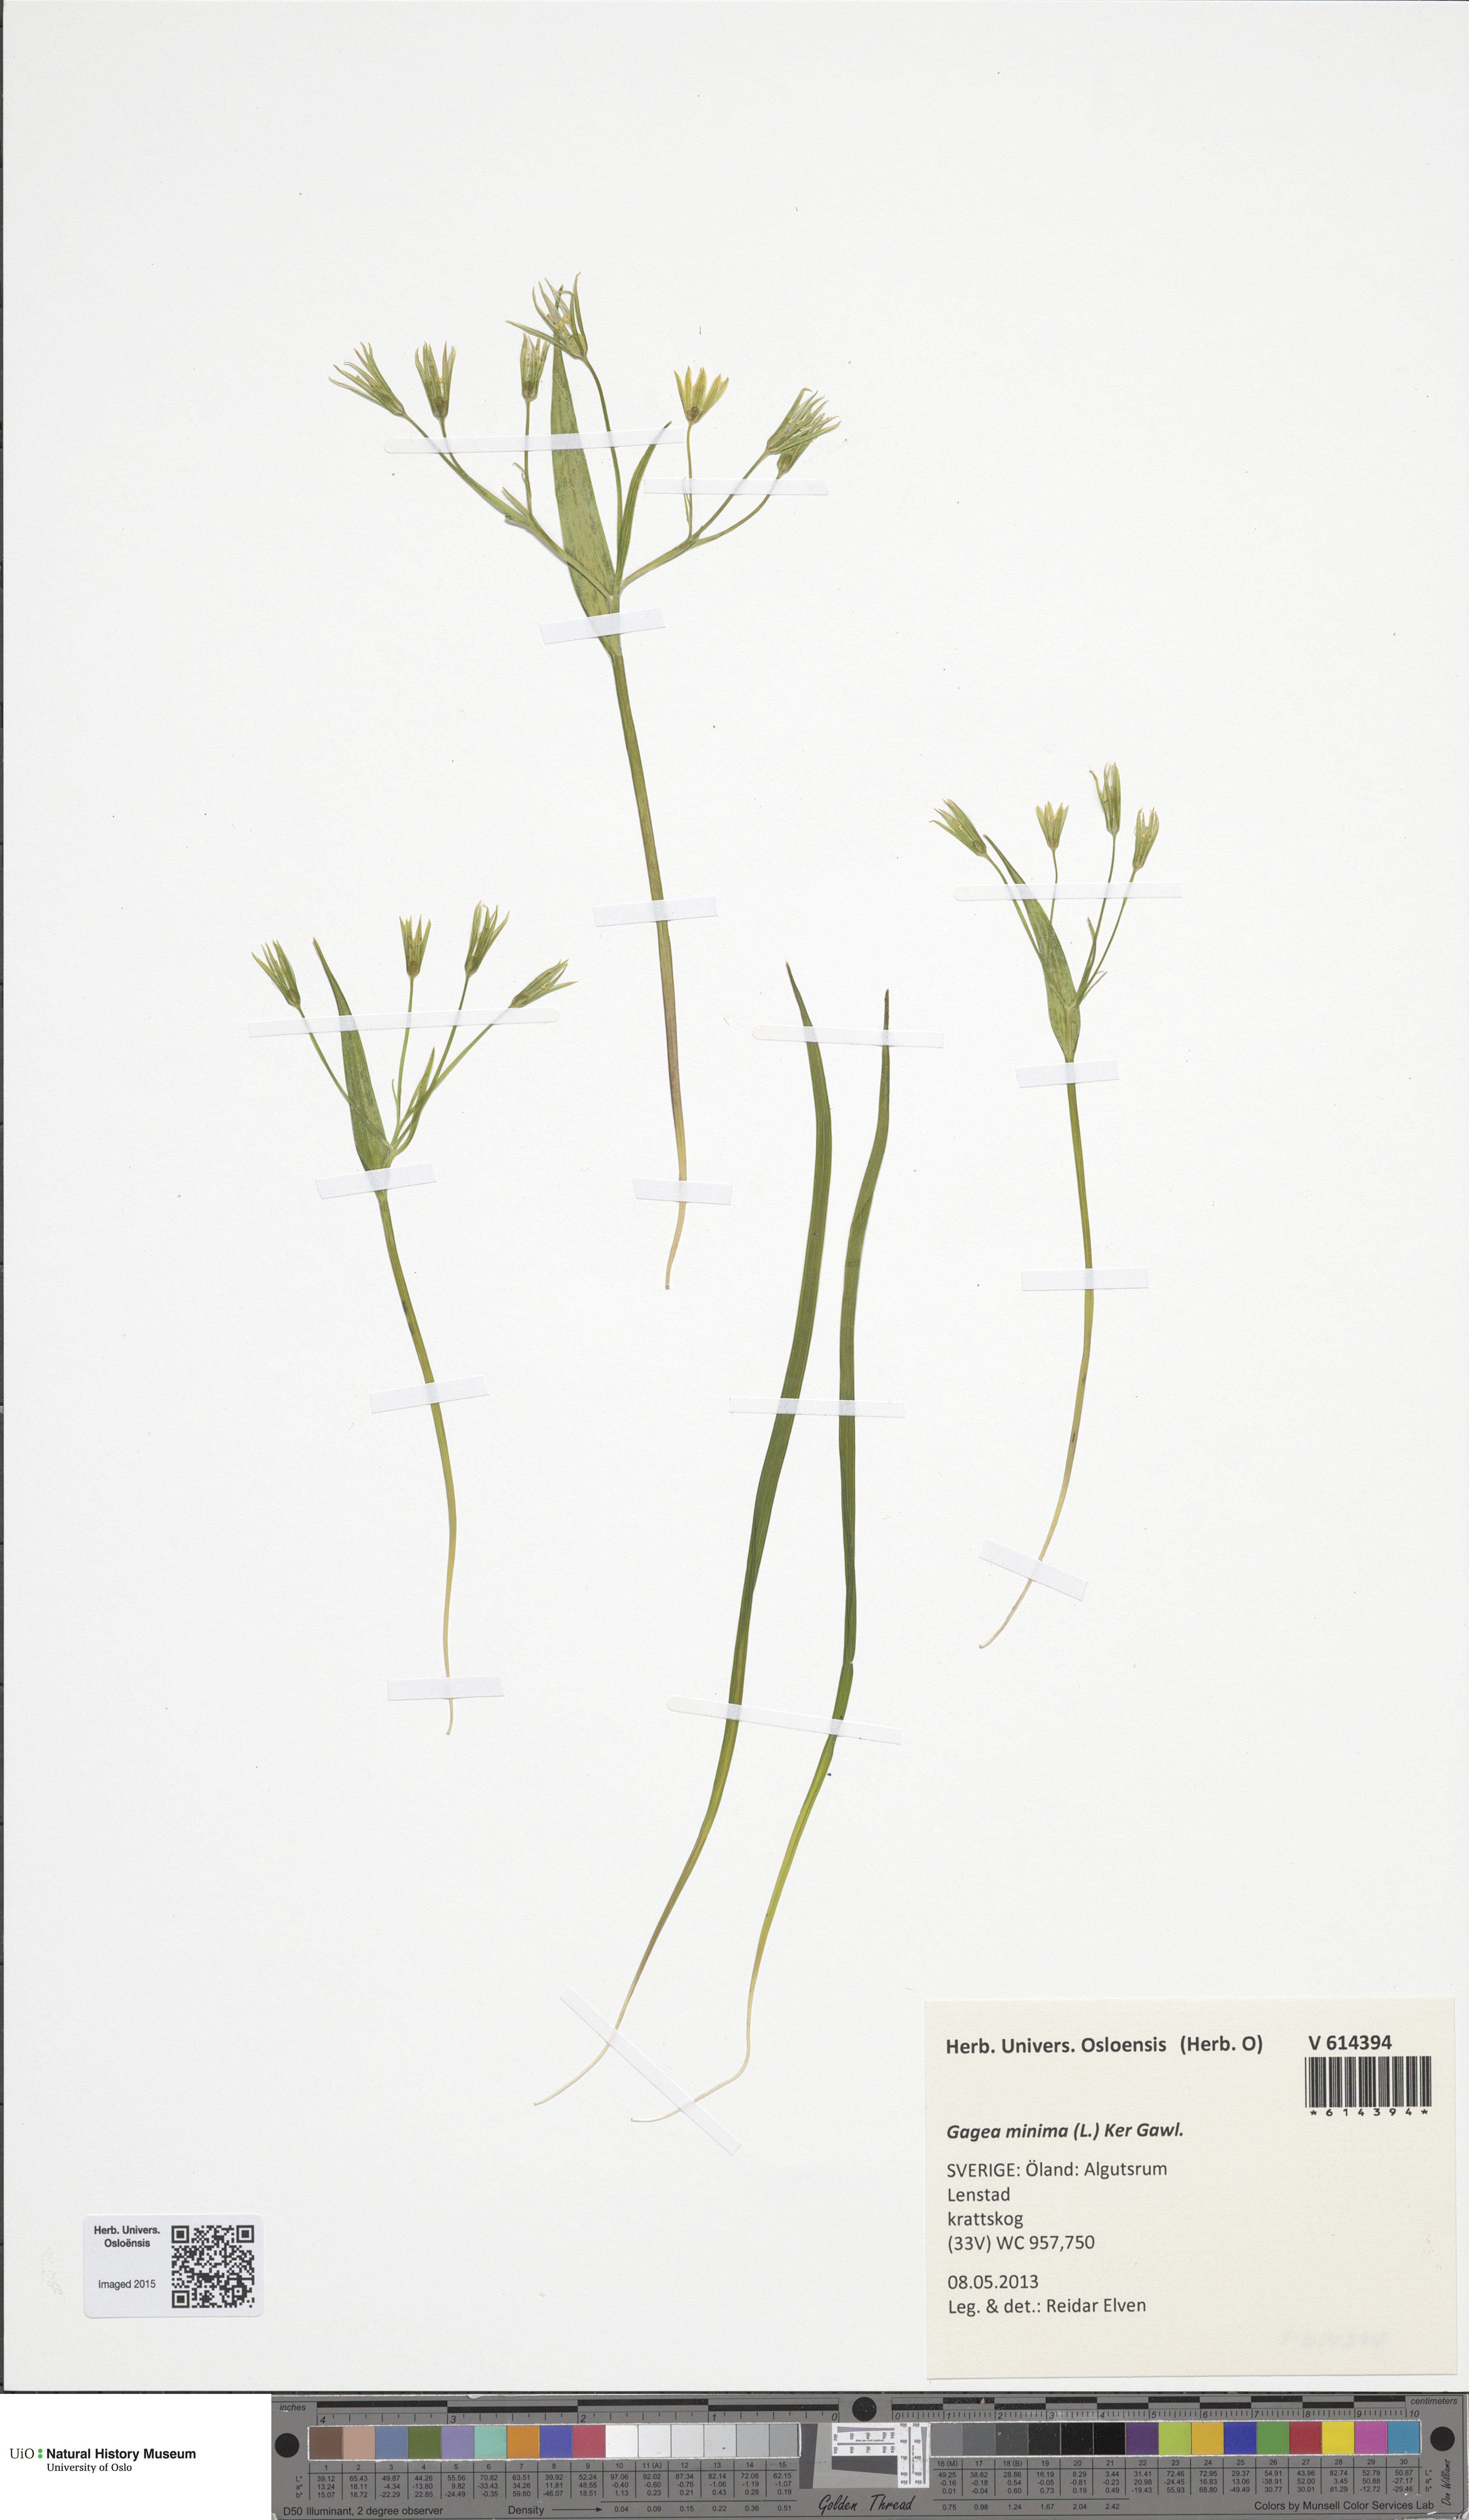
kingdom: Plantae
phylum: Tracheophyta
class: Liliopsida
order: Liliales
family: Liliaceae
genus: Gagea
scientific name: Gagea minima
